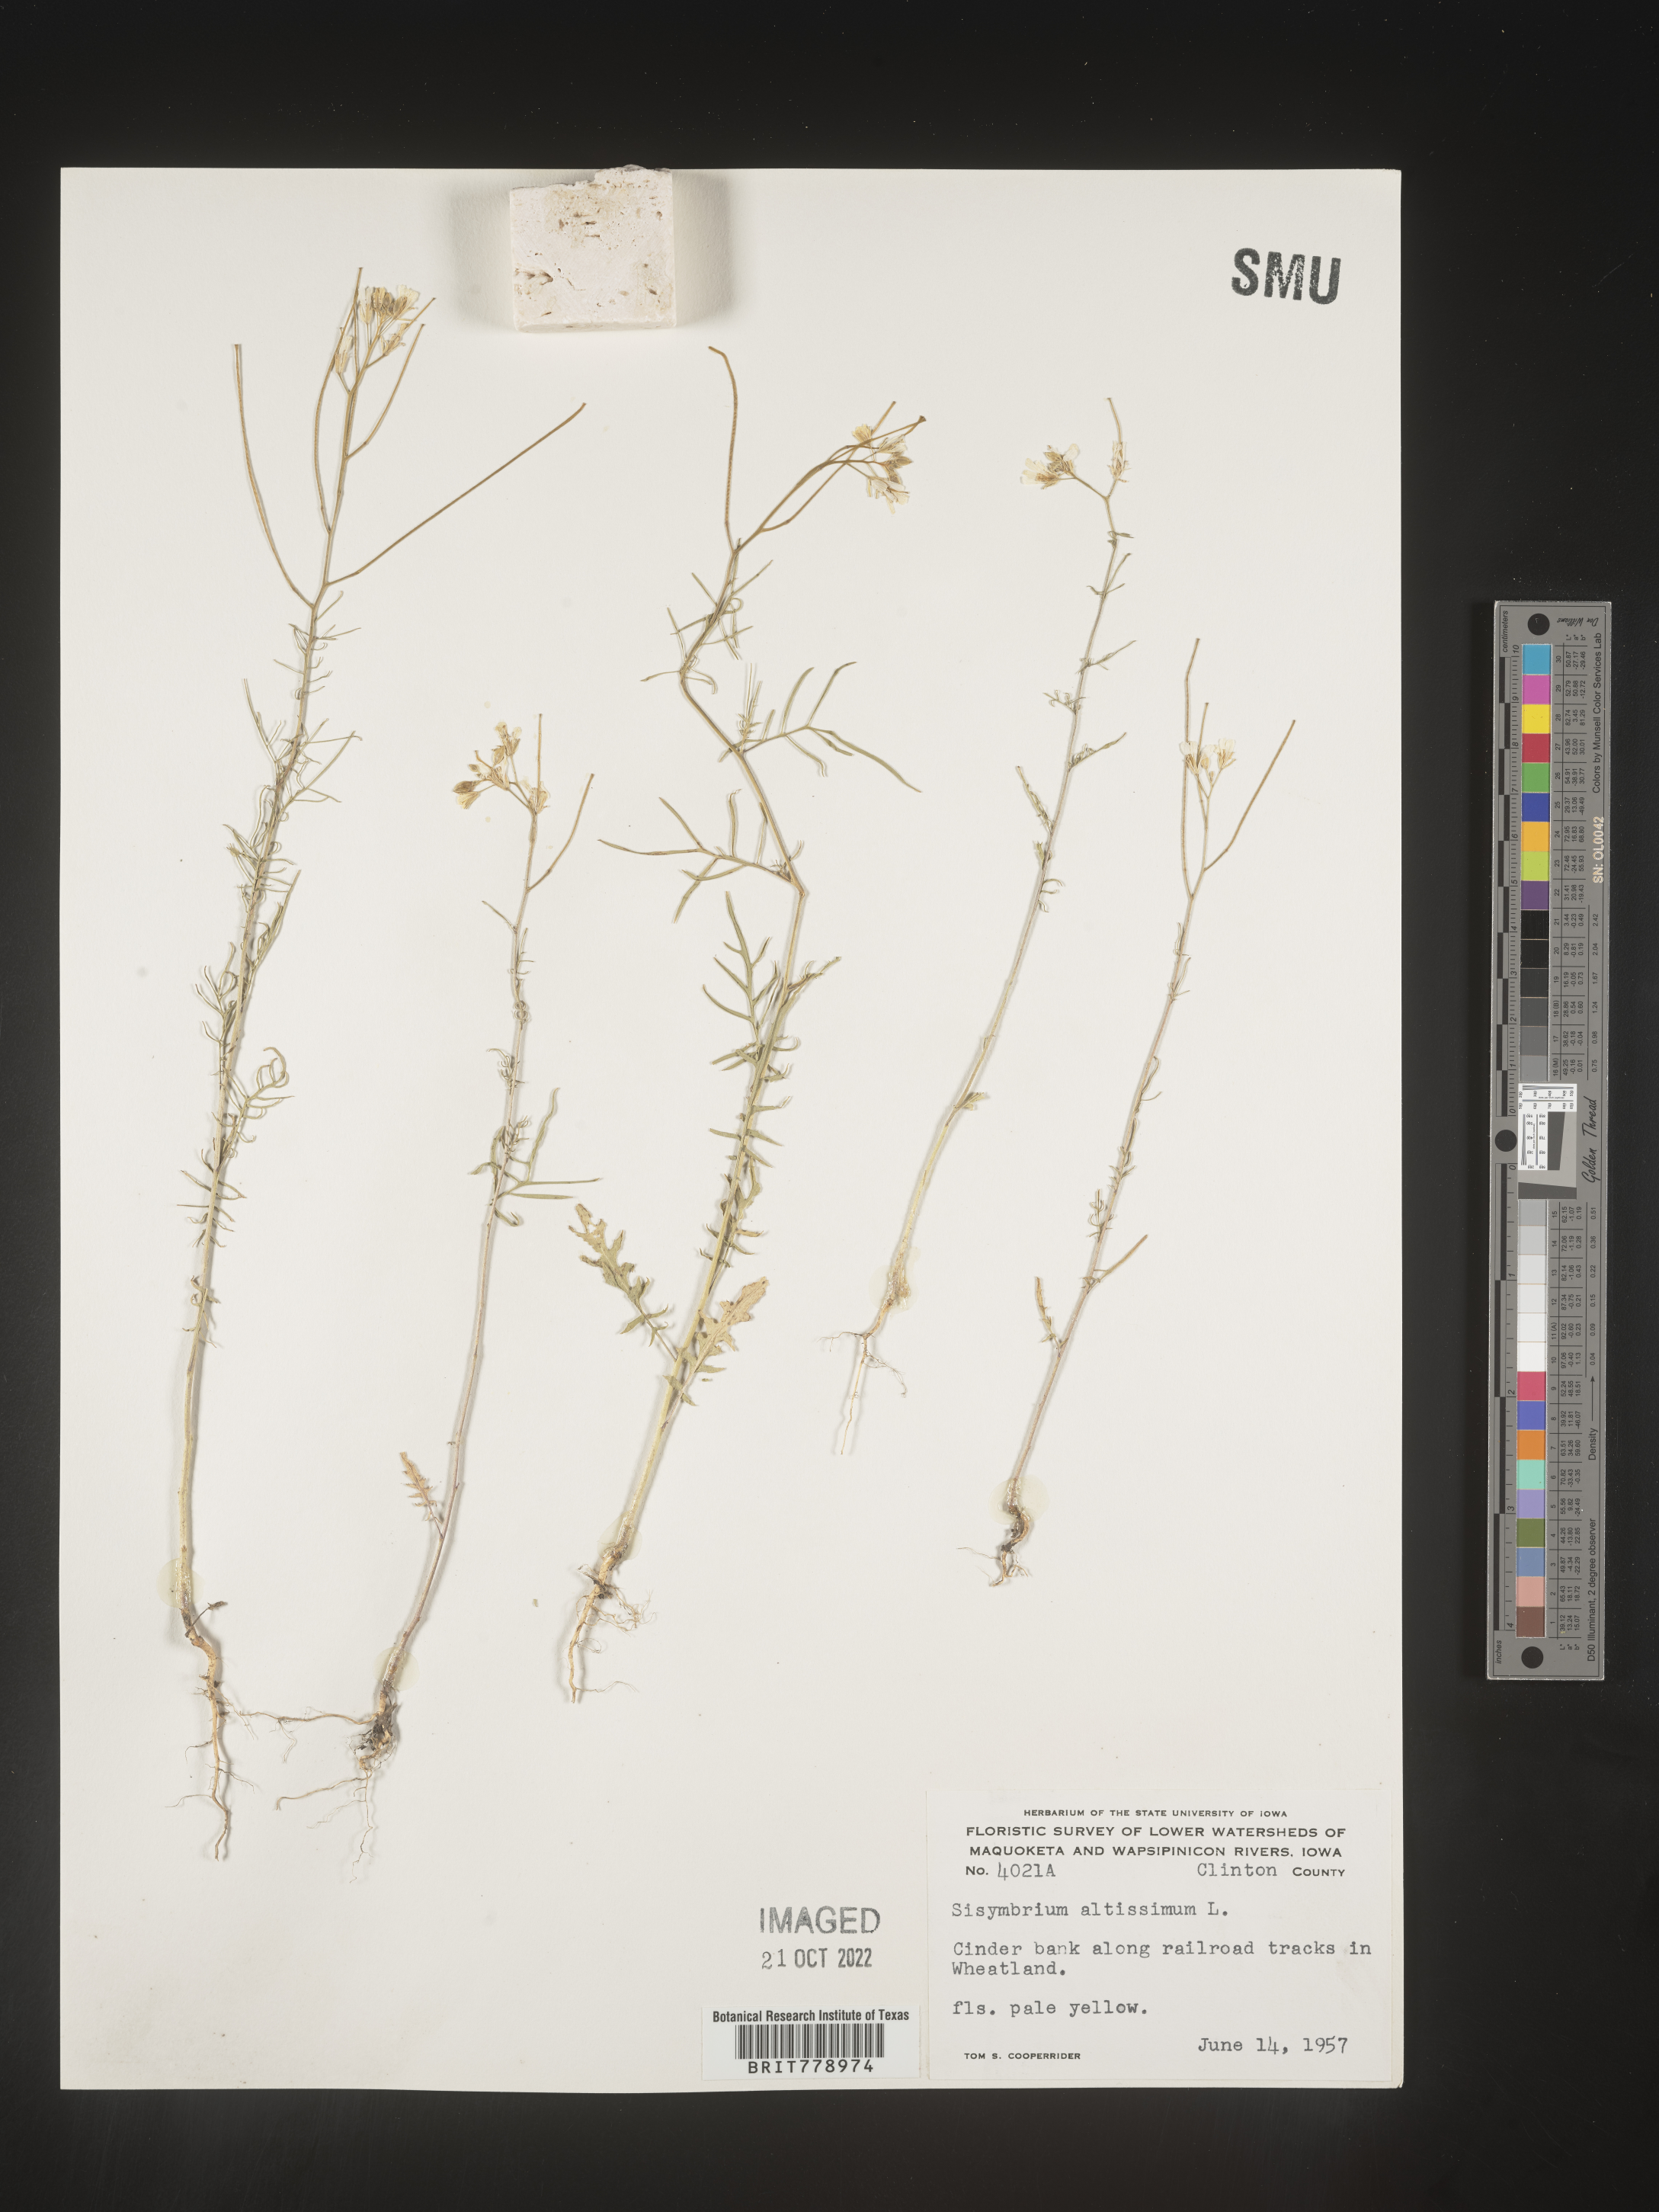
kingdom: Plantae
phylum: Tracheophyta
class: Magnoliopsida
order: Brassicales
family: Brassicaceae
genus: Sisymbrium
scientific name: Sisymbrium altissimum
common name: Tall rocket
